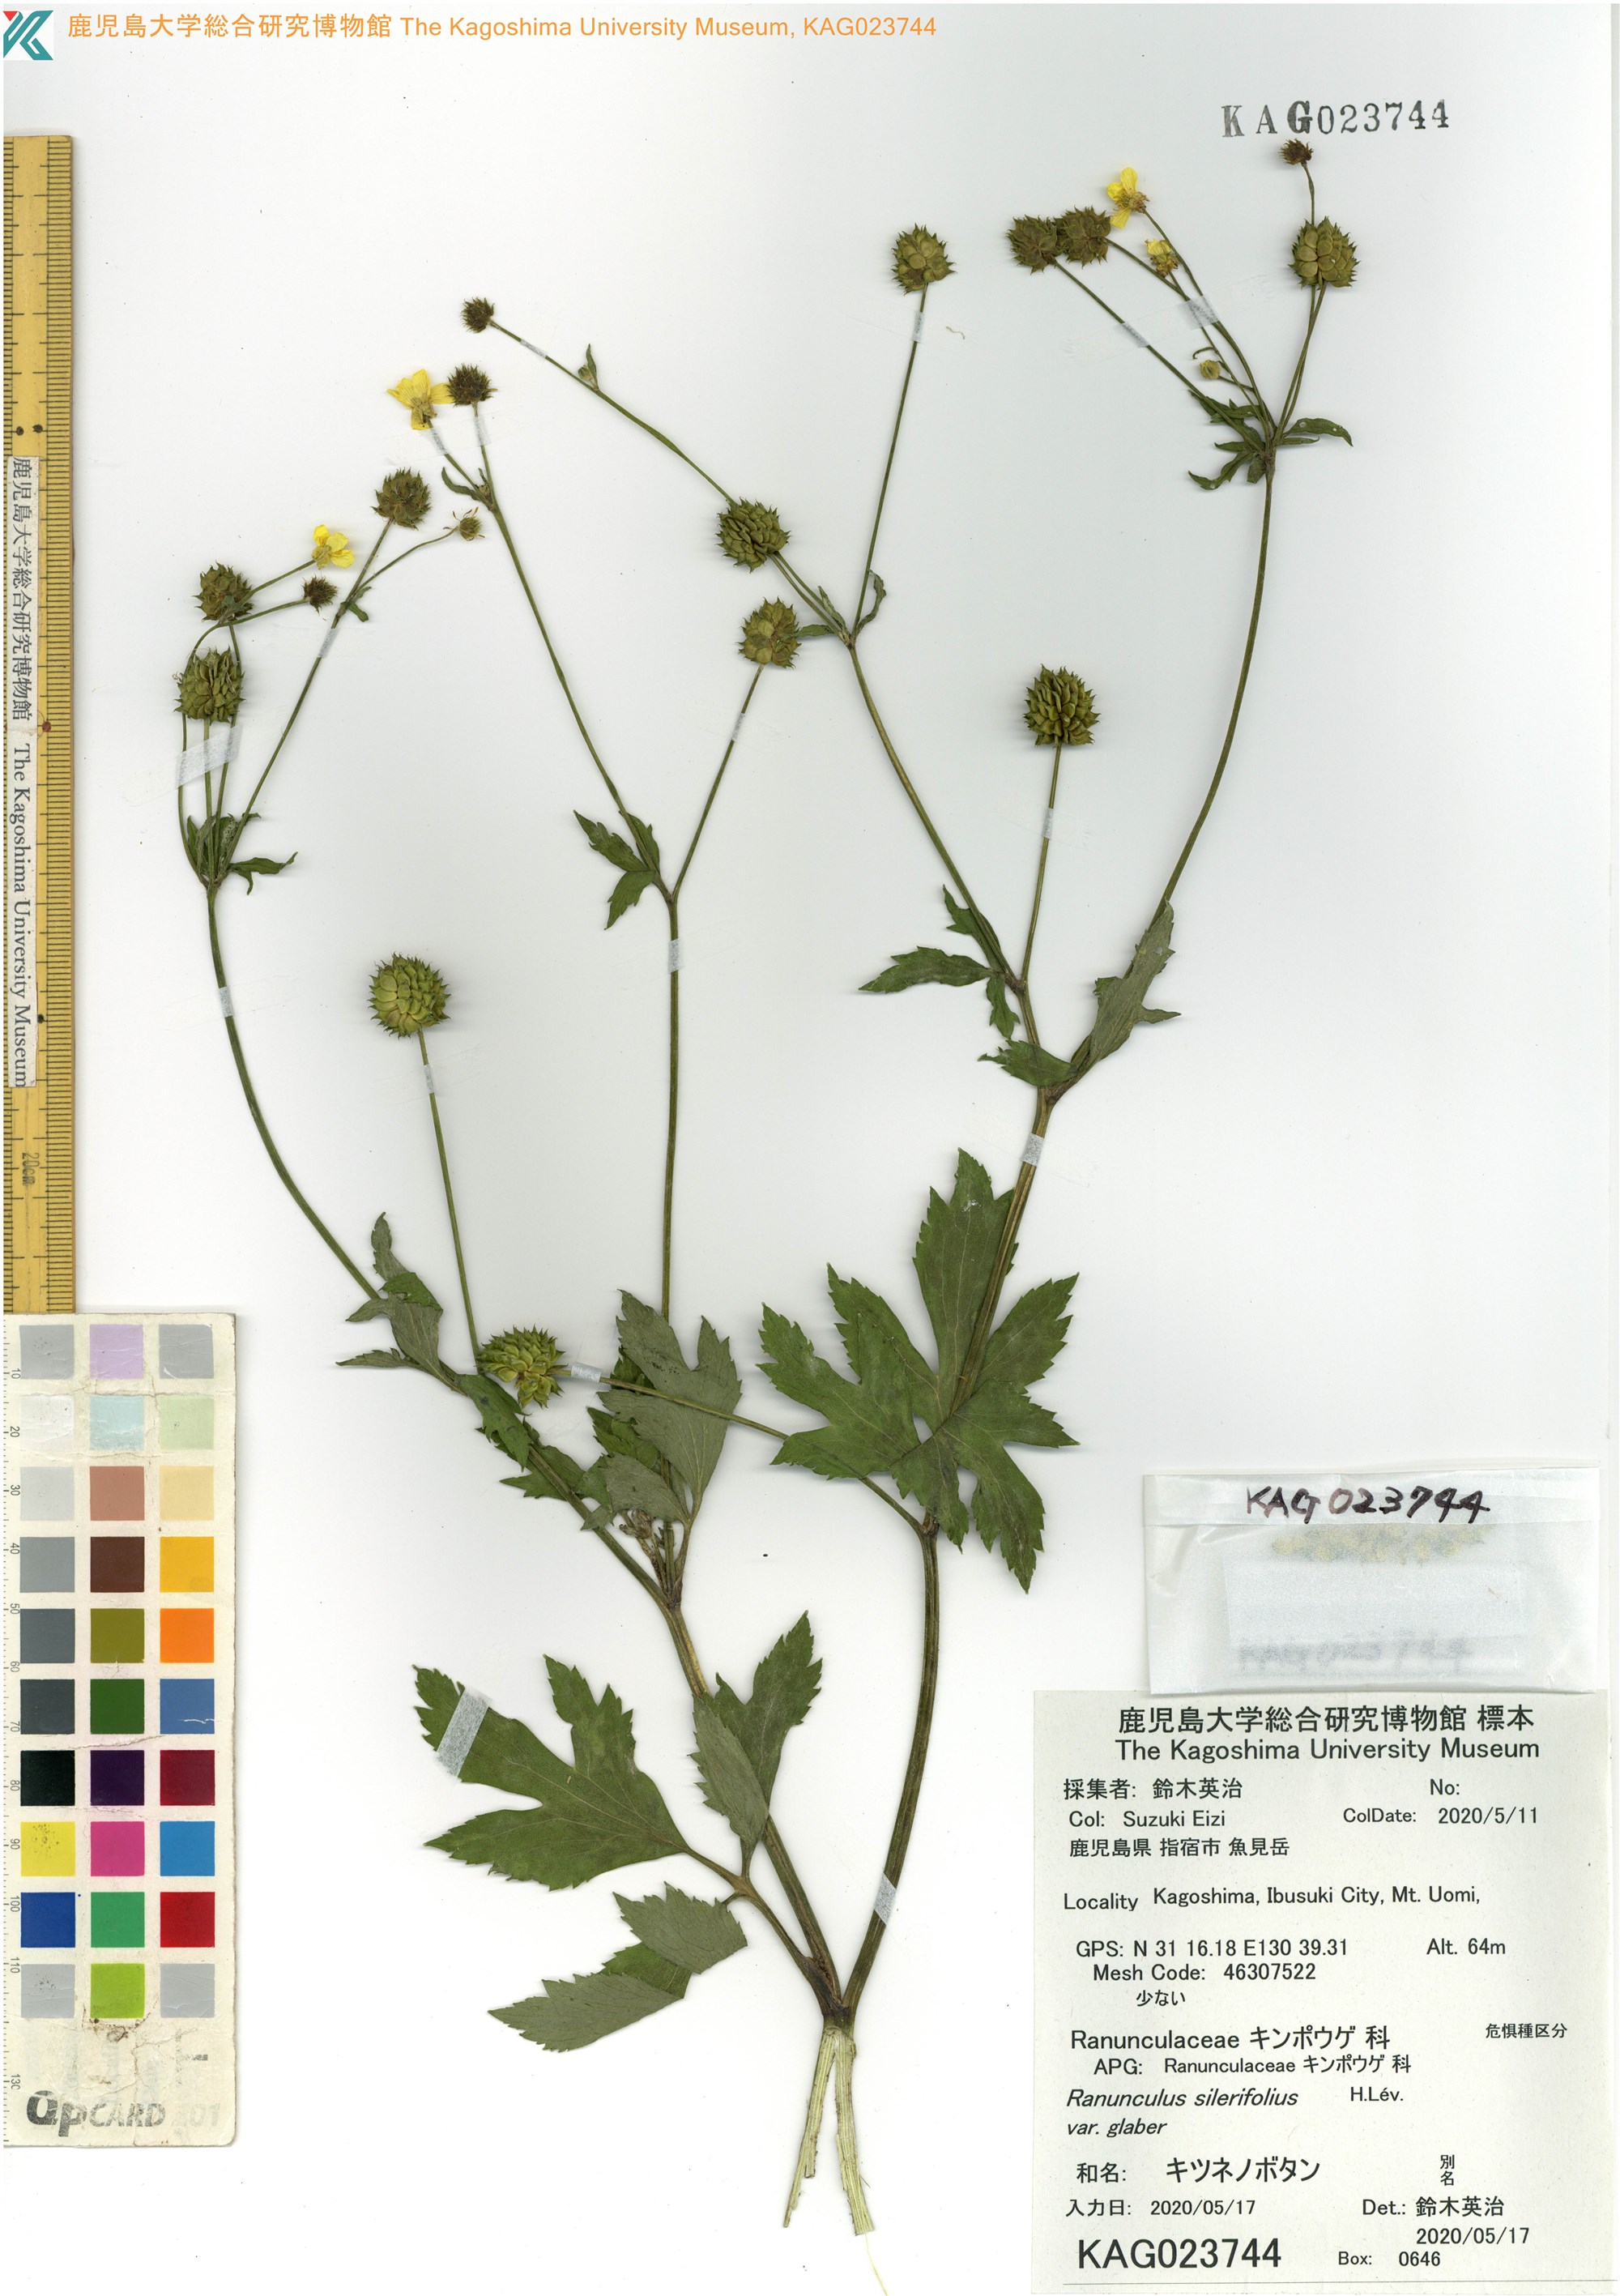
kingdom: Plantae
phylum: Tracheophyta
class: Magnoliopsida
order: Ranunculales
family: Ranunculaceae
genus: Ranunculus
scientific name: Ranunculus silerifolius
